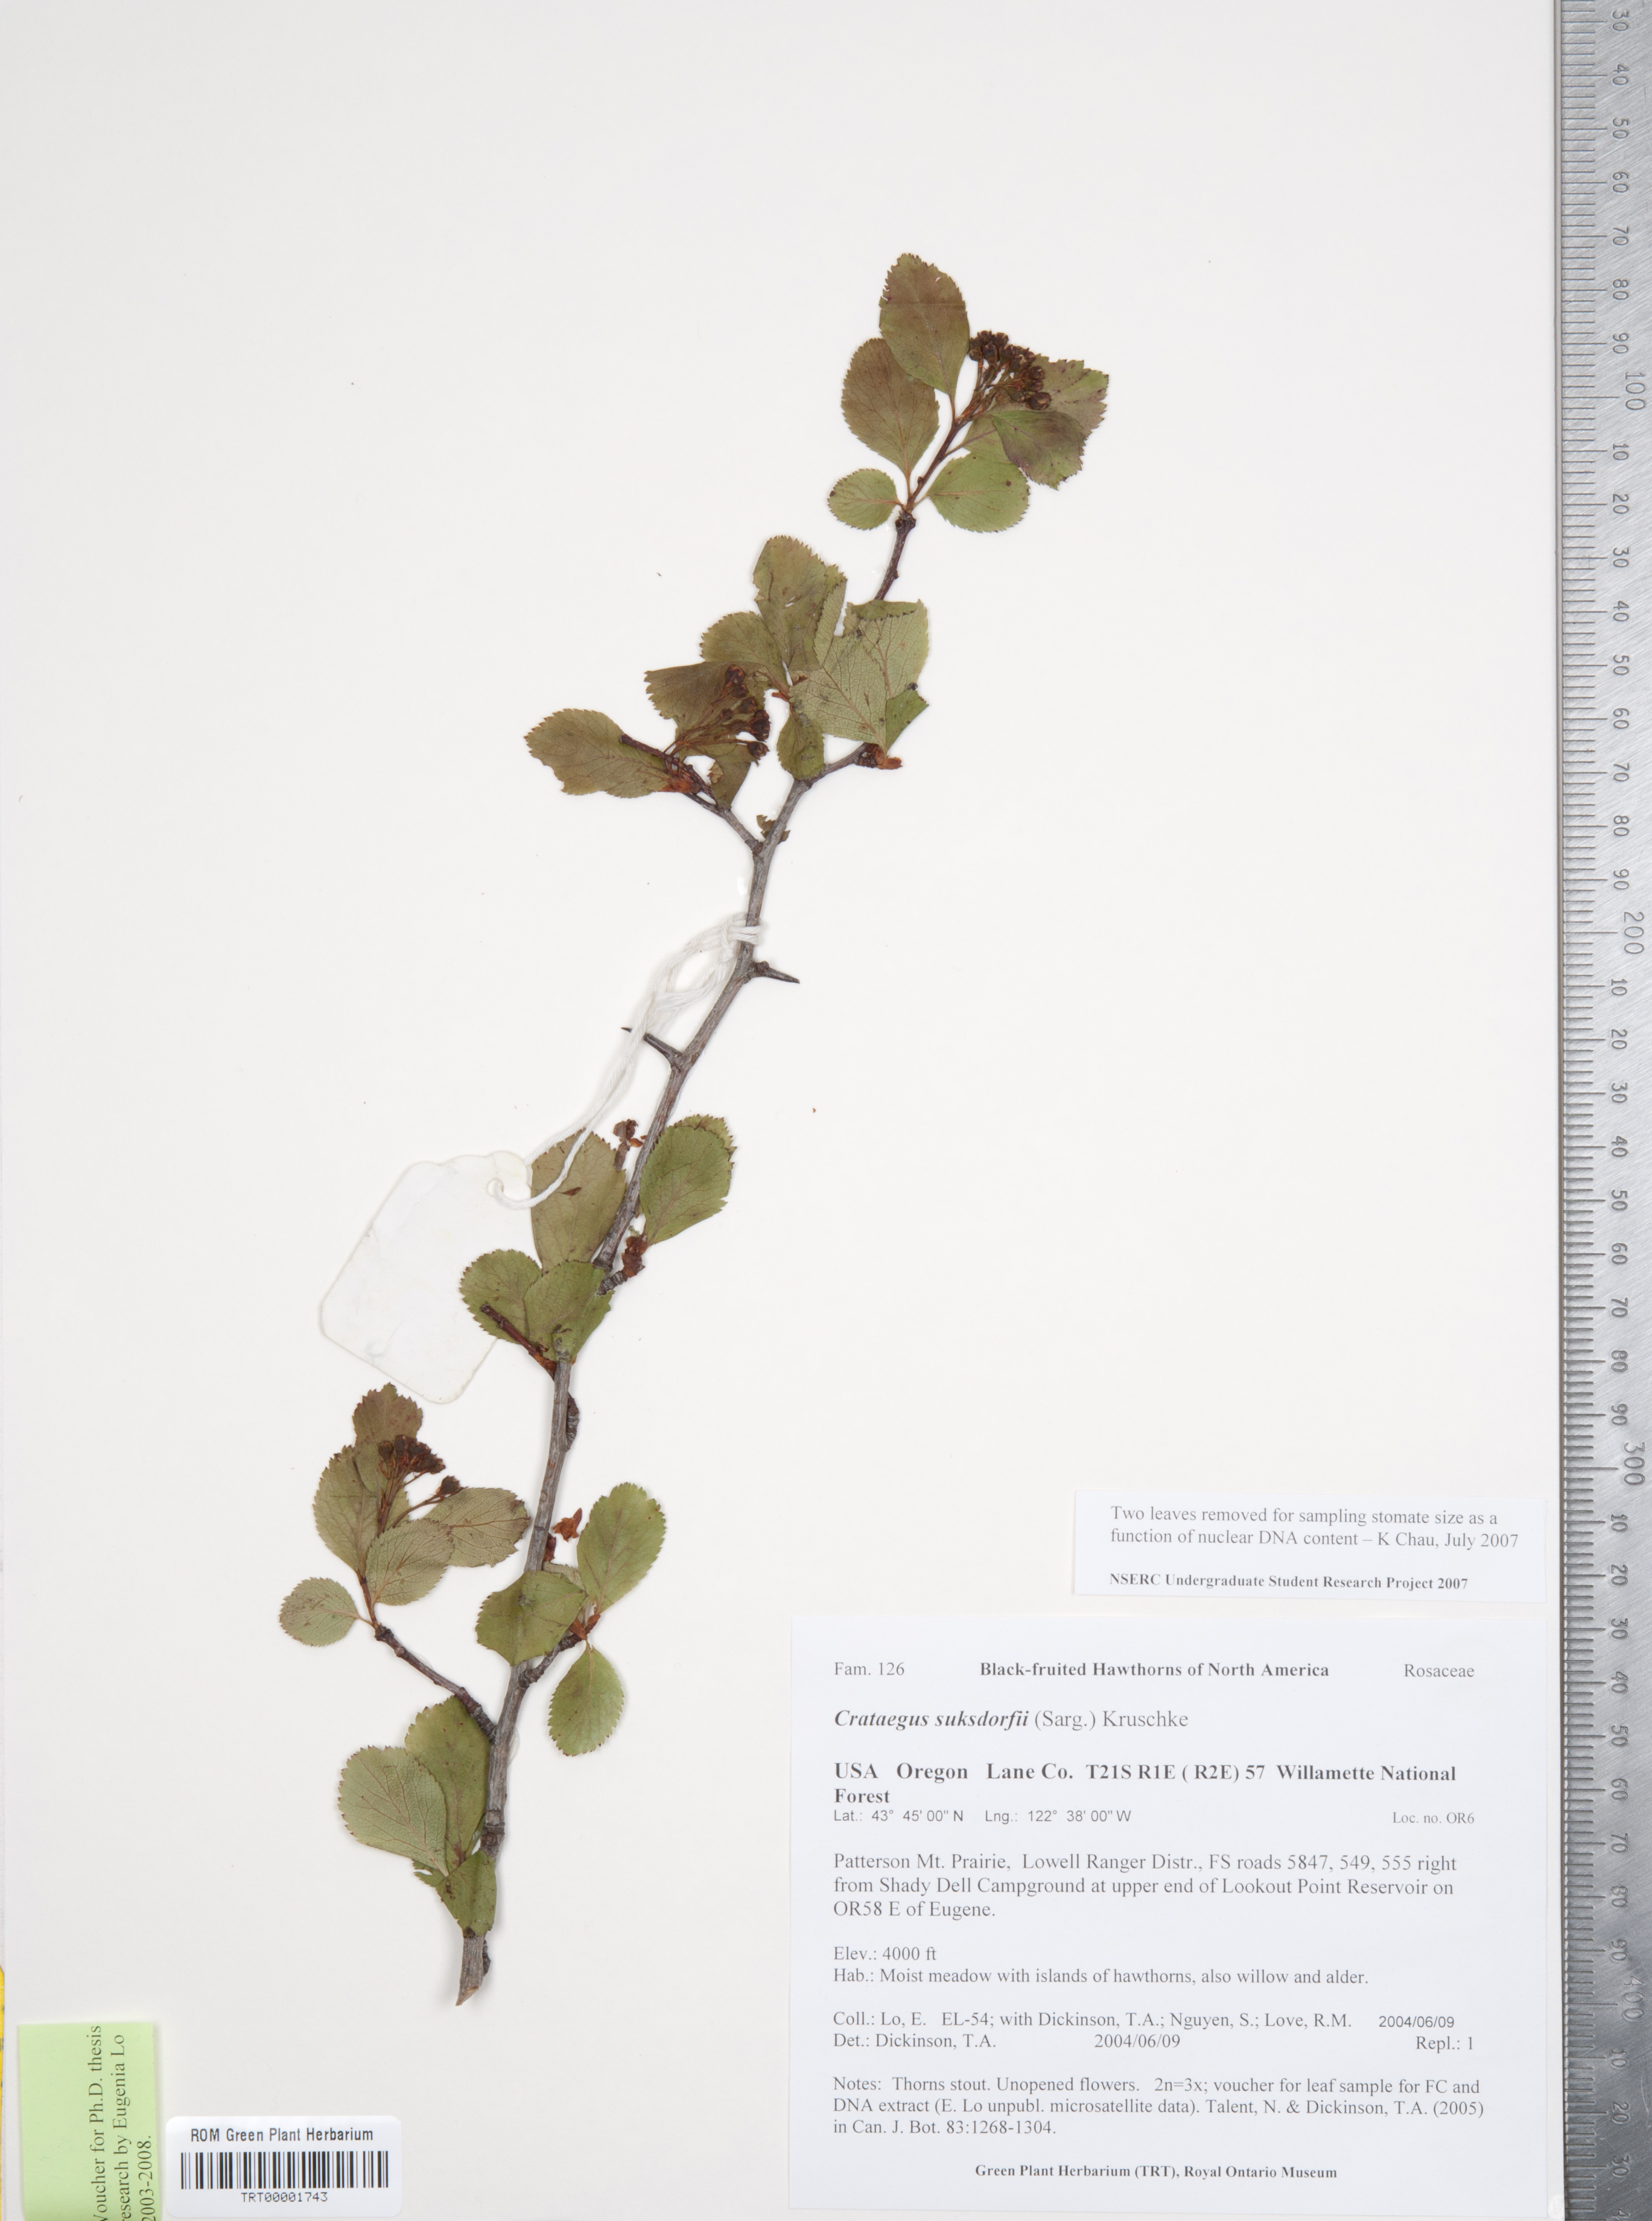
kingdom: Plantae
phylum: Tracheophyta
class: Magnoliopsida
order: Rosales
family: Rosaceae
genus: Crataegus
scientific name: Crataegus gaylussacia
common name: Huckleberry hawthorn
